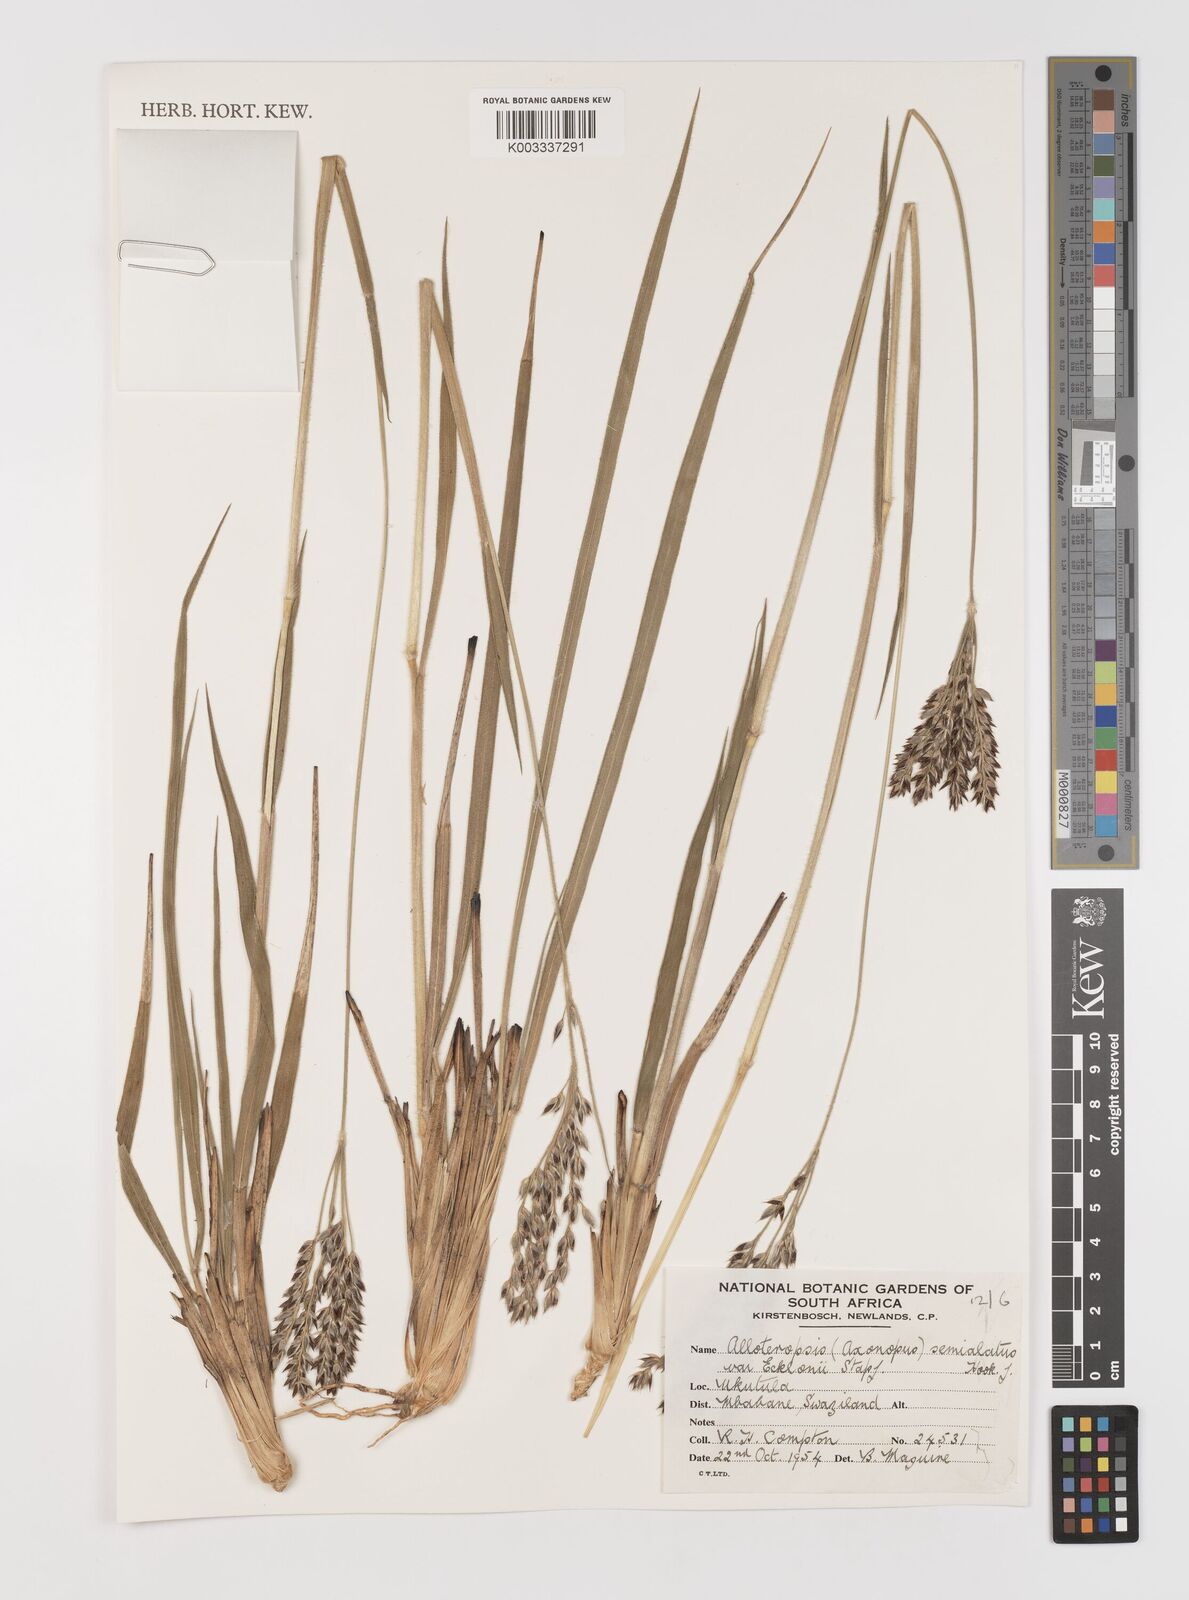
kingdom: Plantae
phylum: Tracheophyta
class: Liliopsida
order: Poales
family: Poaceae
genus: Alloteropsis
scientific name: Alloteropsis semialata
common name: Cockatoo grass
